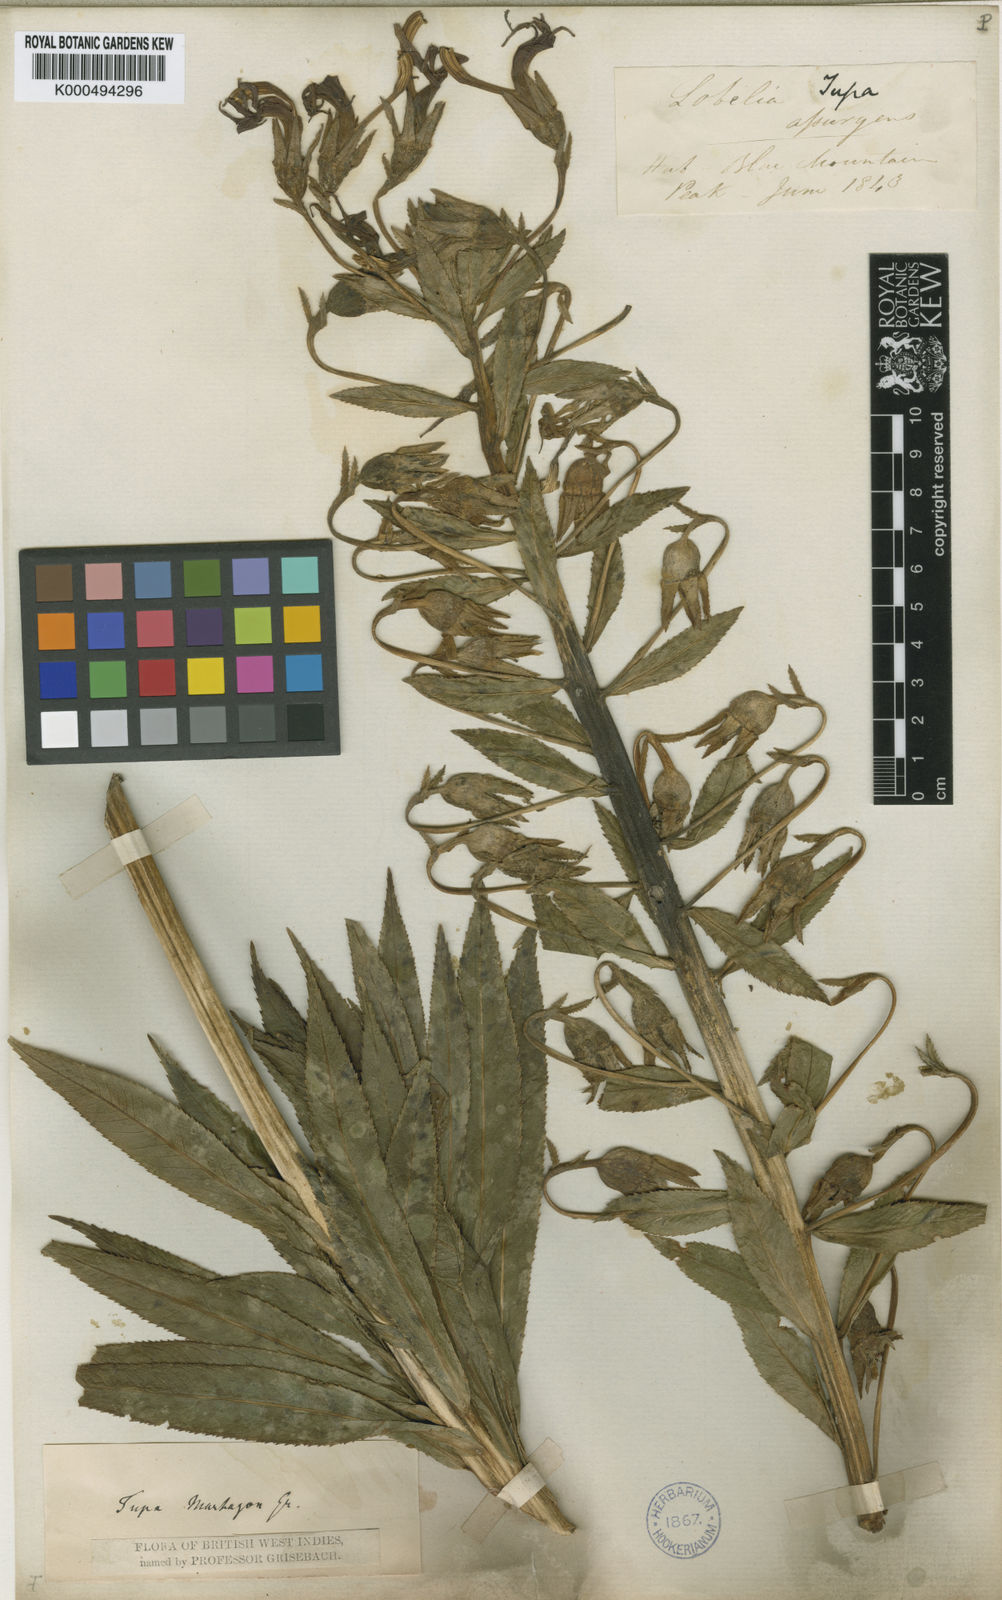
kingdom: Plantae
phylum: Tracheophyta
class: Magnoliopsida
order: Asterales
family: Campanulaceae
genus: Lobelia
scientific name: Lobelia martagon
